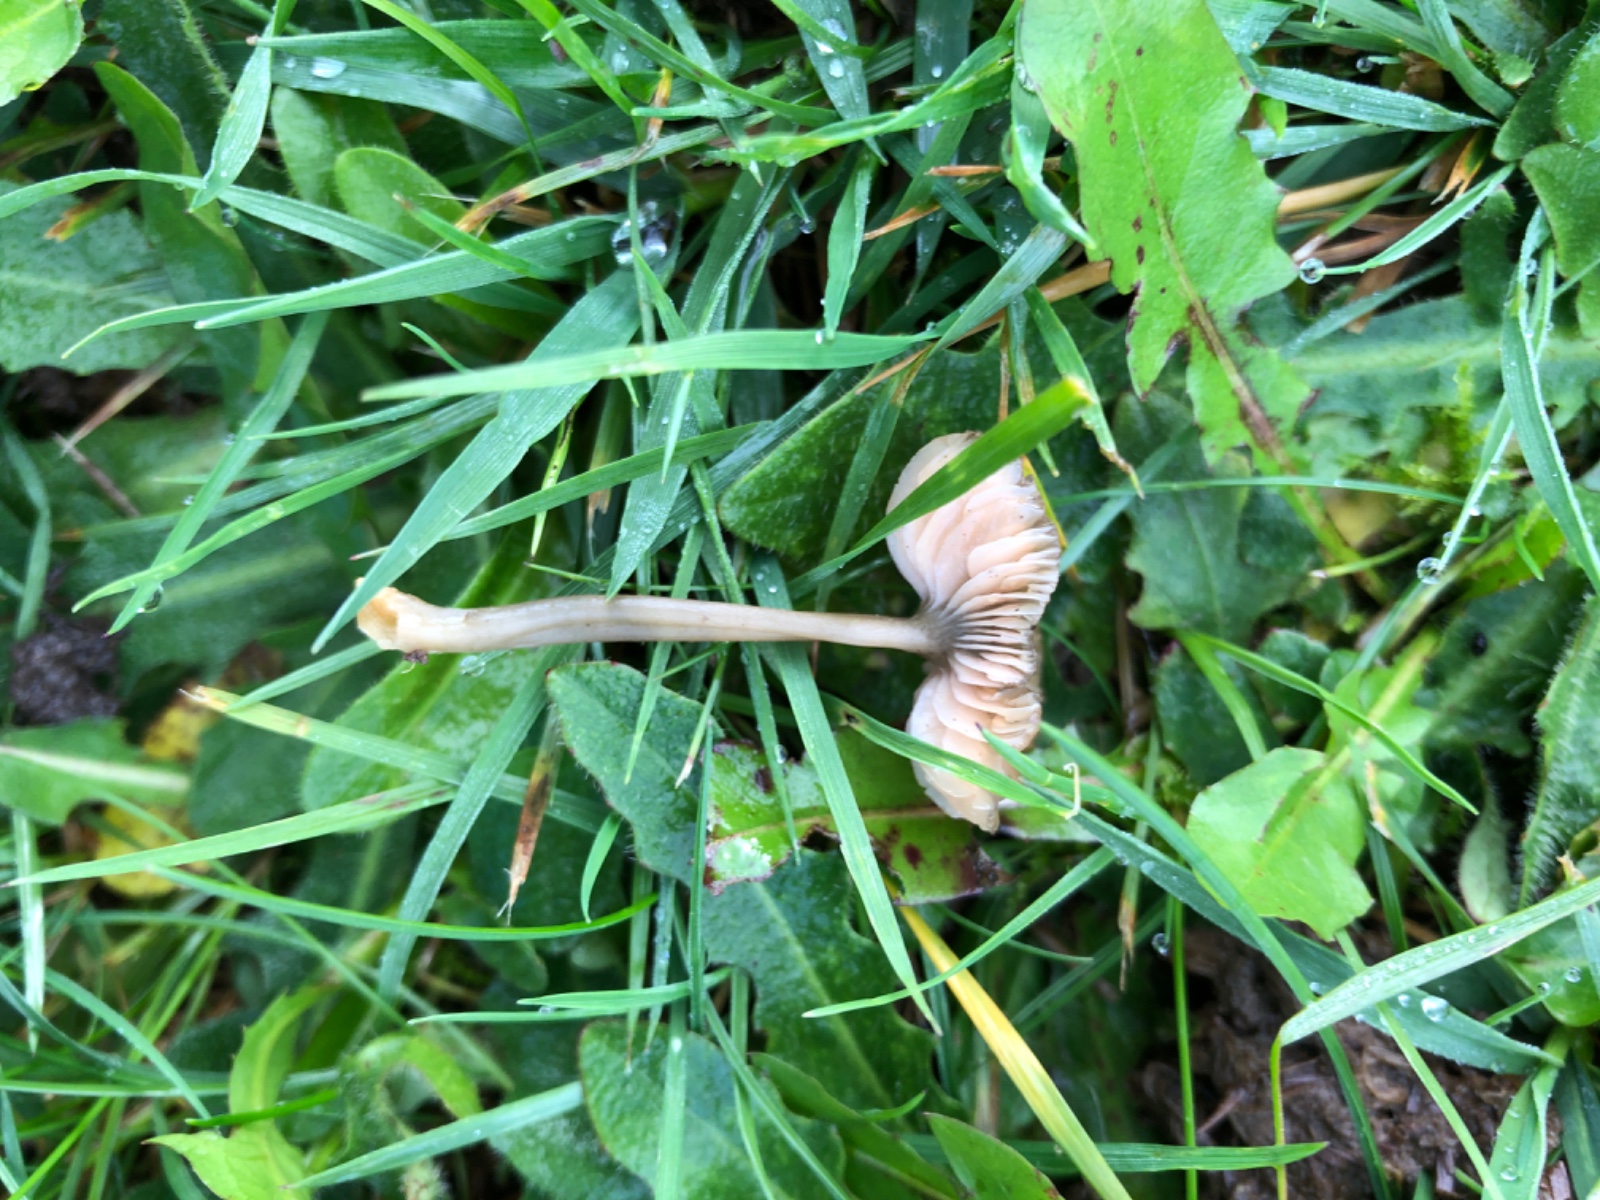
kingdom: Fungi
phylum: Basidiomycota
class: Agaricomycetes
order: Agaricales
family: Entolomataceae
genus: Entoloma
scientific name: Entoloma exile
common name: rødplettet rødblad
